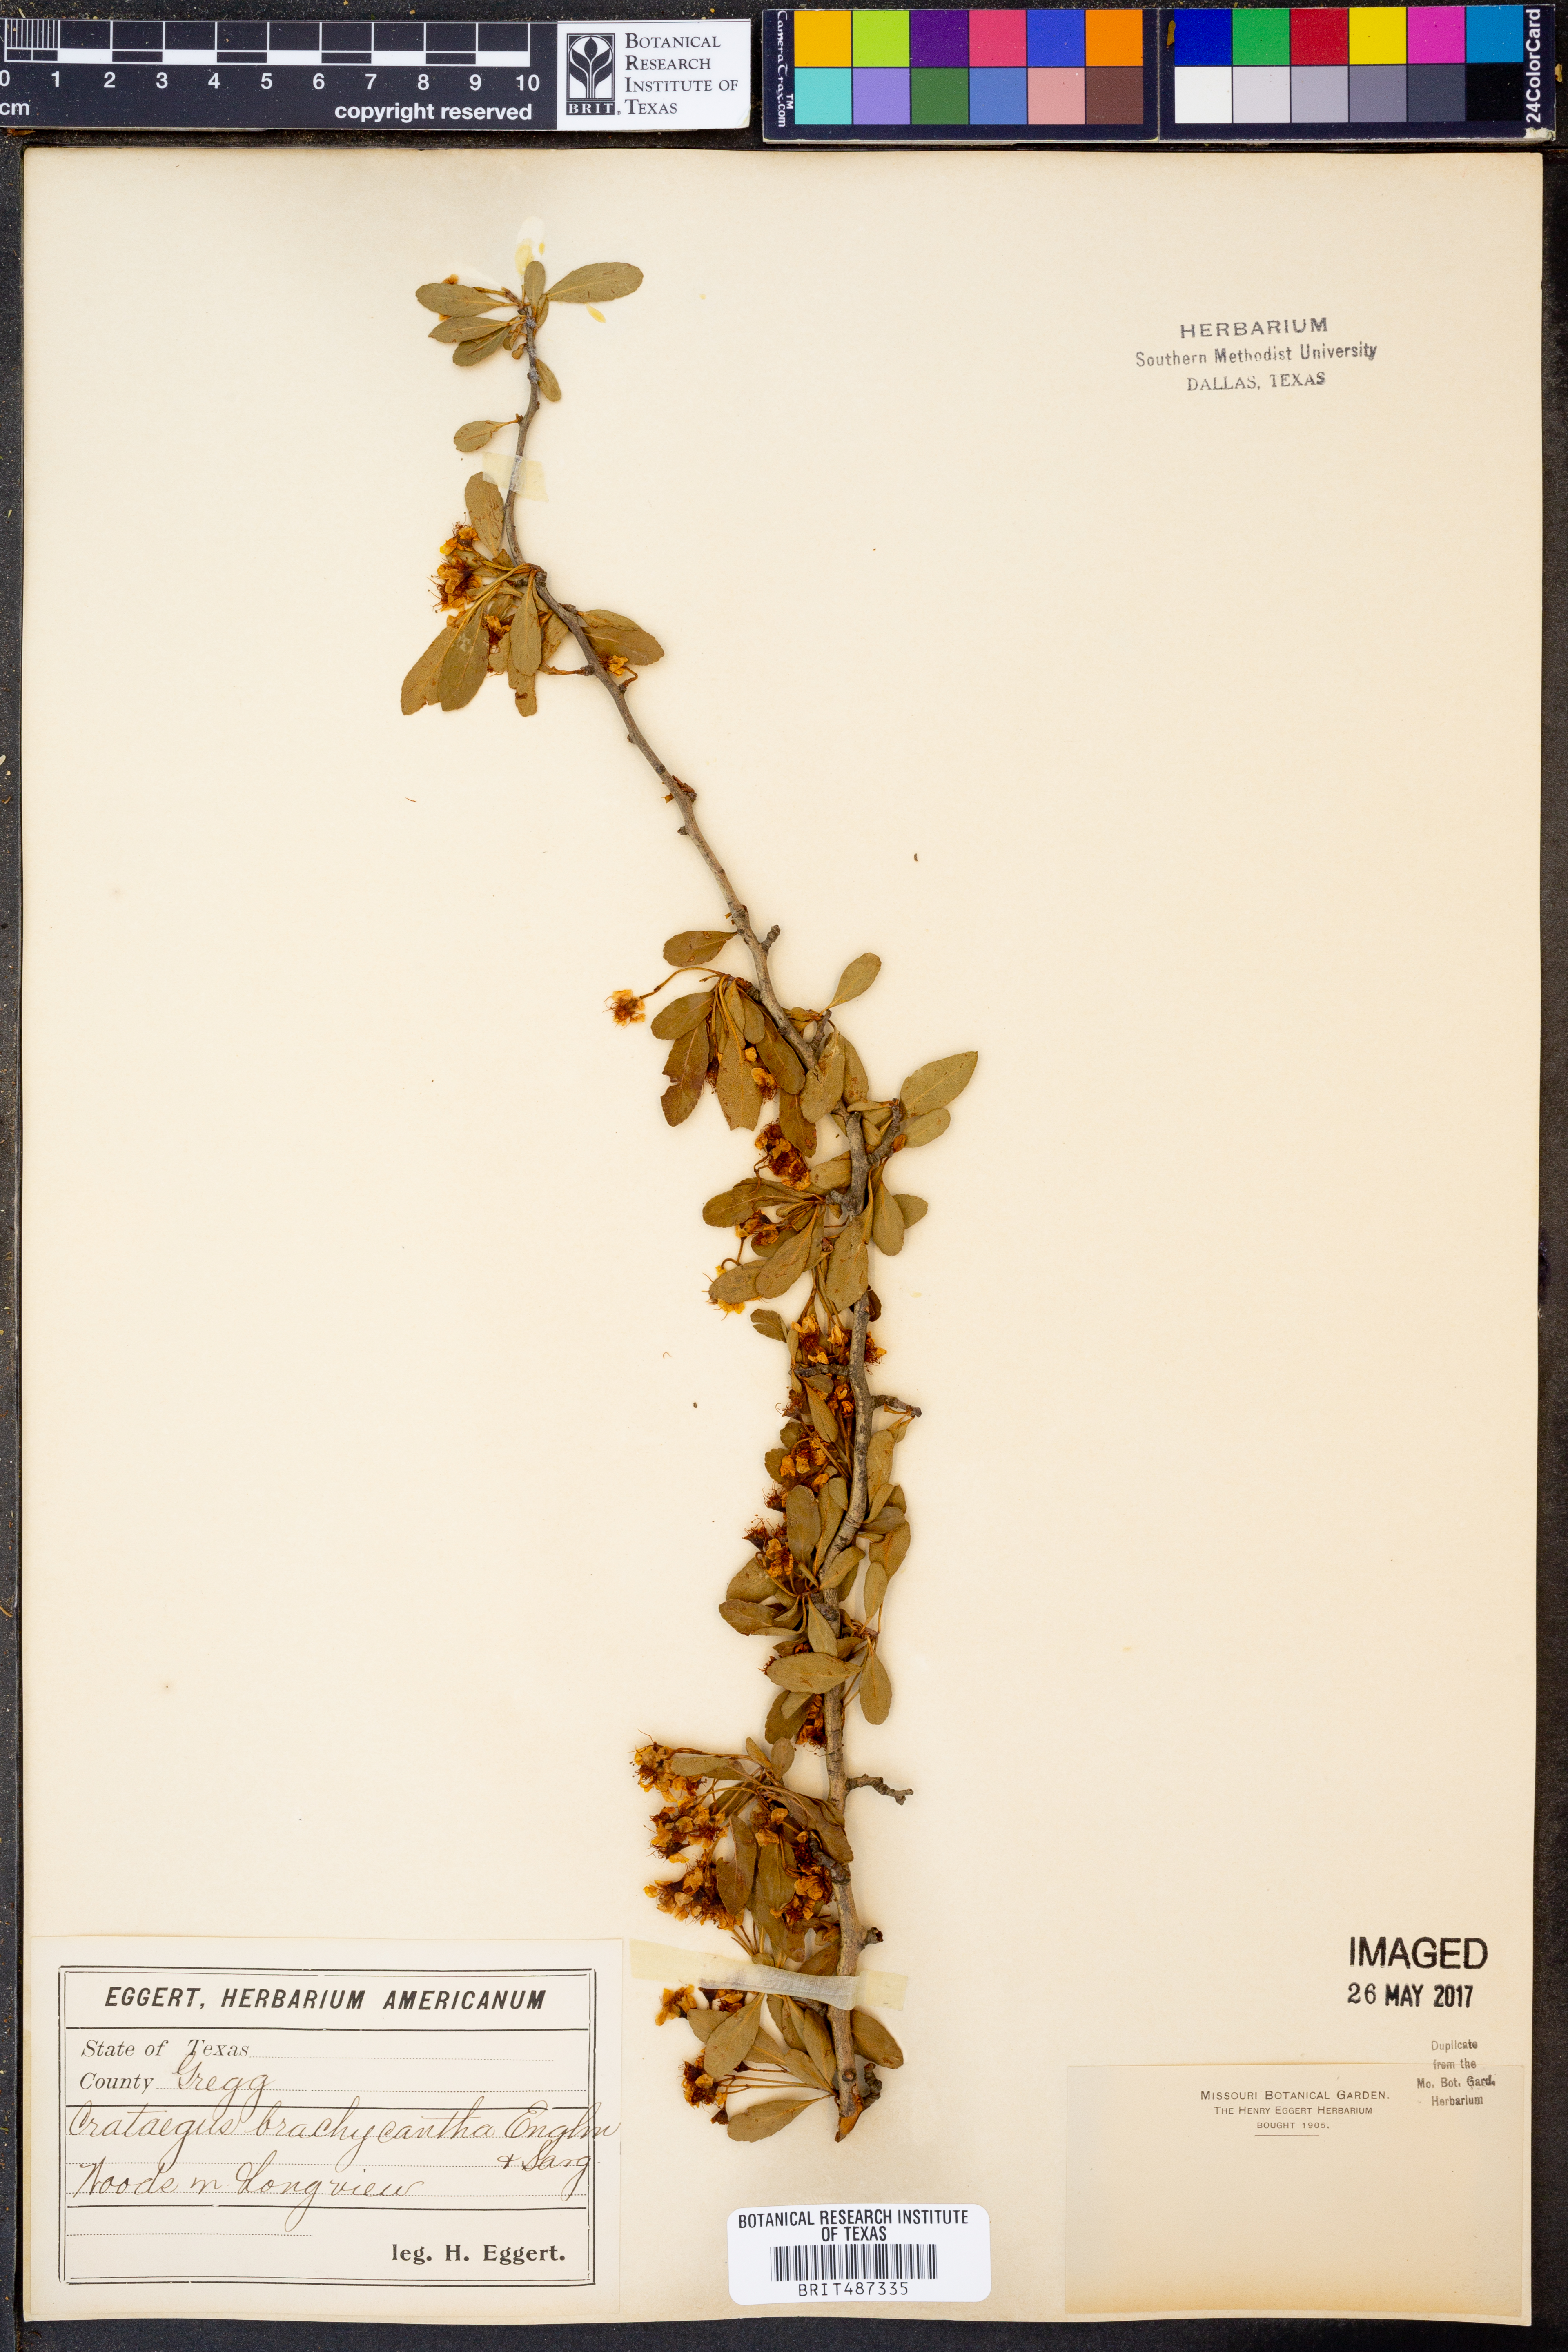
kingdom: Plantae
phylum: Tracheophyta
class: Magnoliopsida
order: Rosales
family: Rosaceae
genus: Crataegus
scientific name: Crataegus brachyacantha
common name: Blueberry-hawthorn
